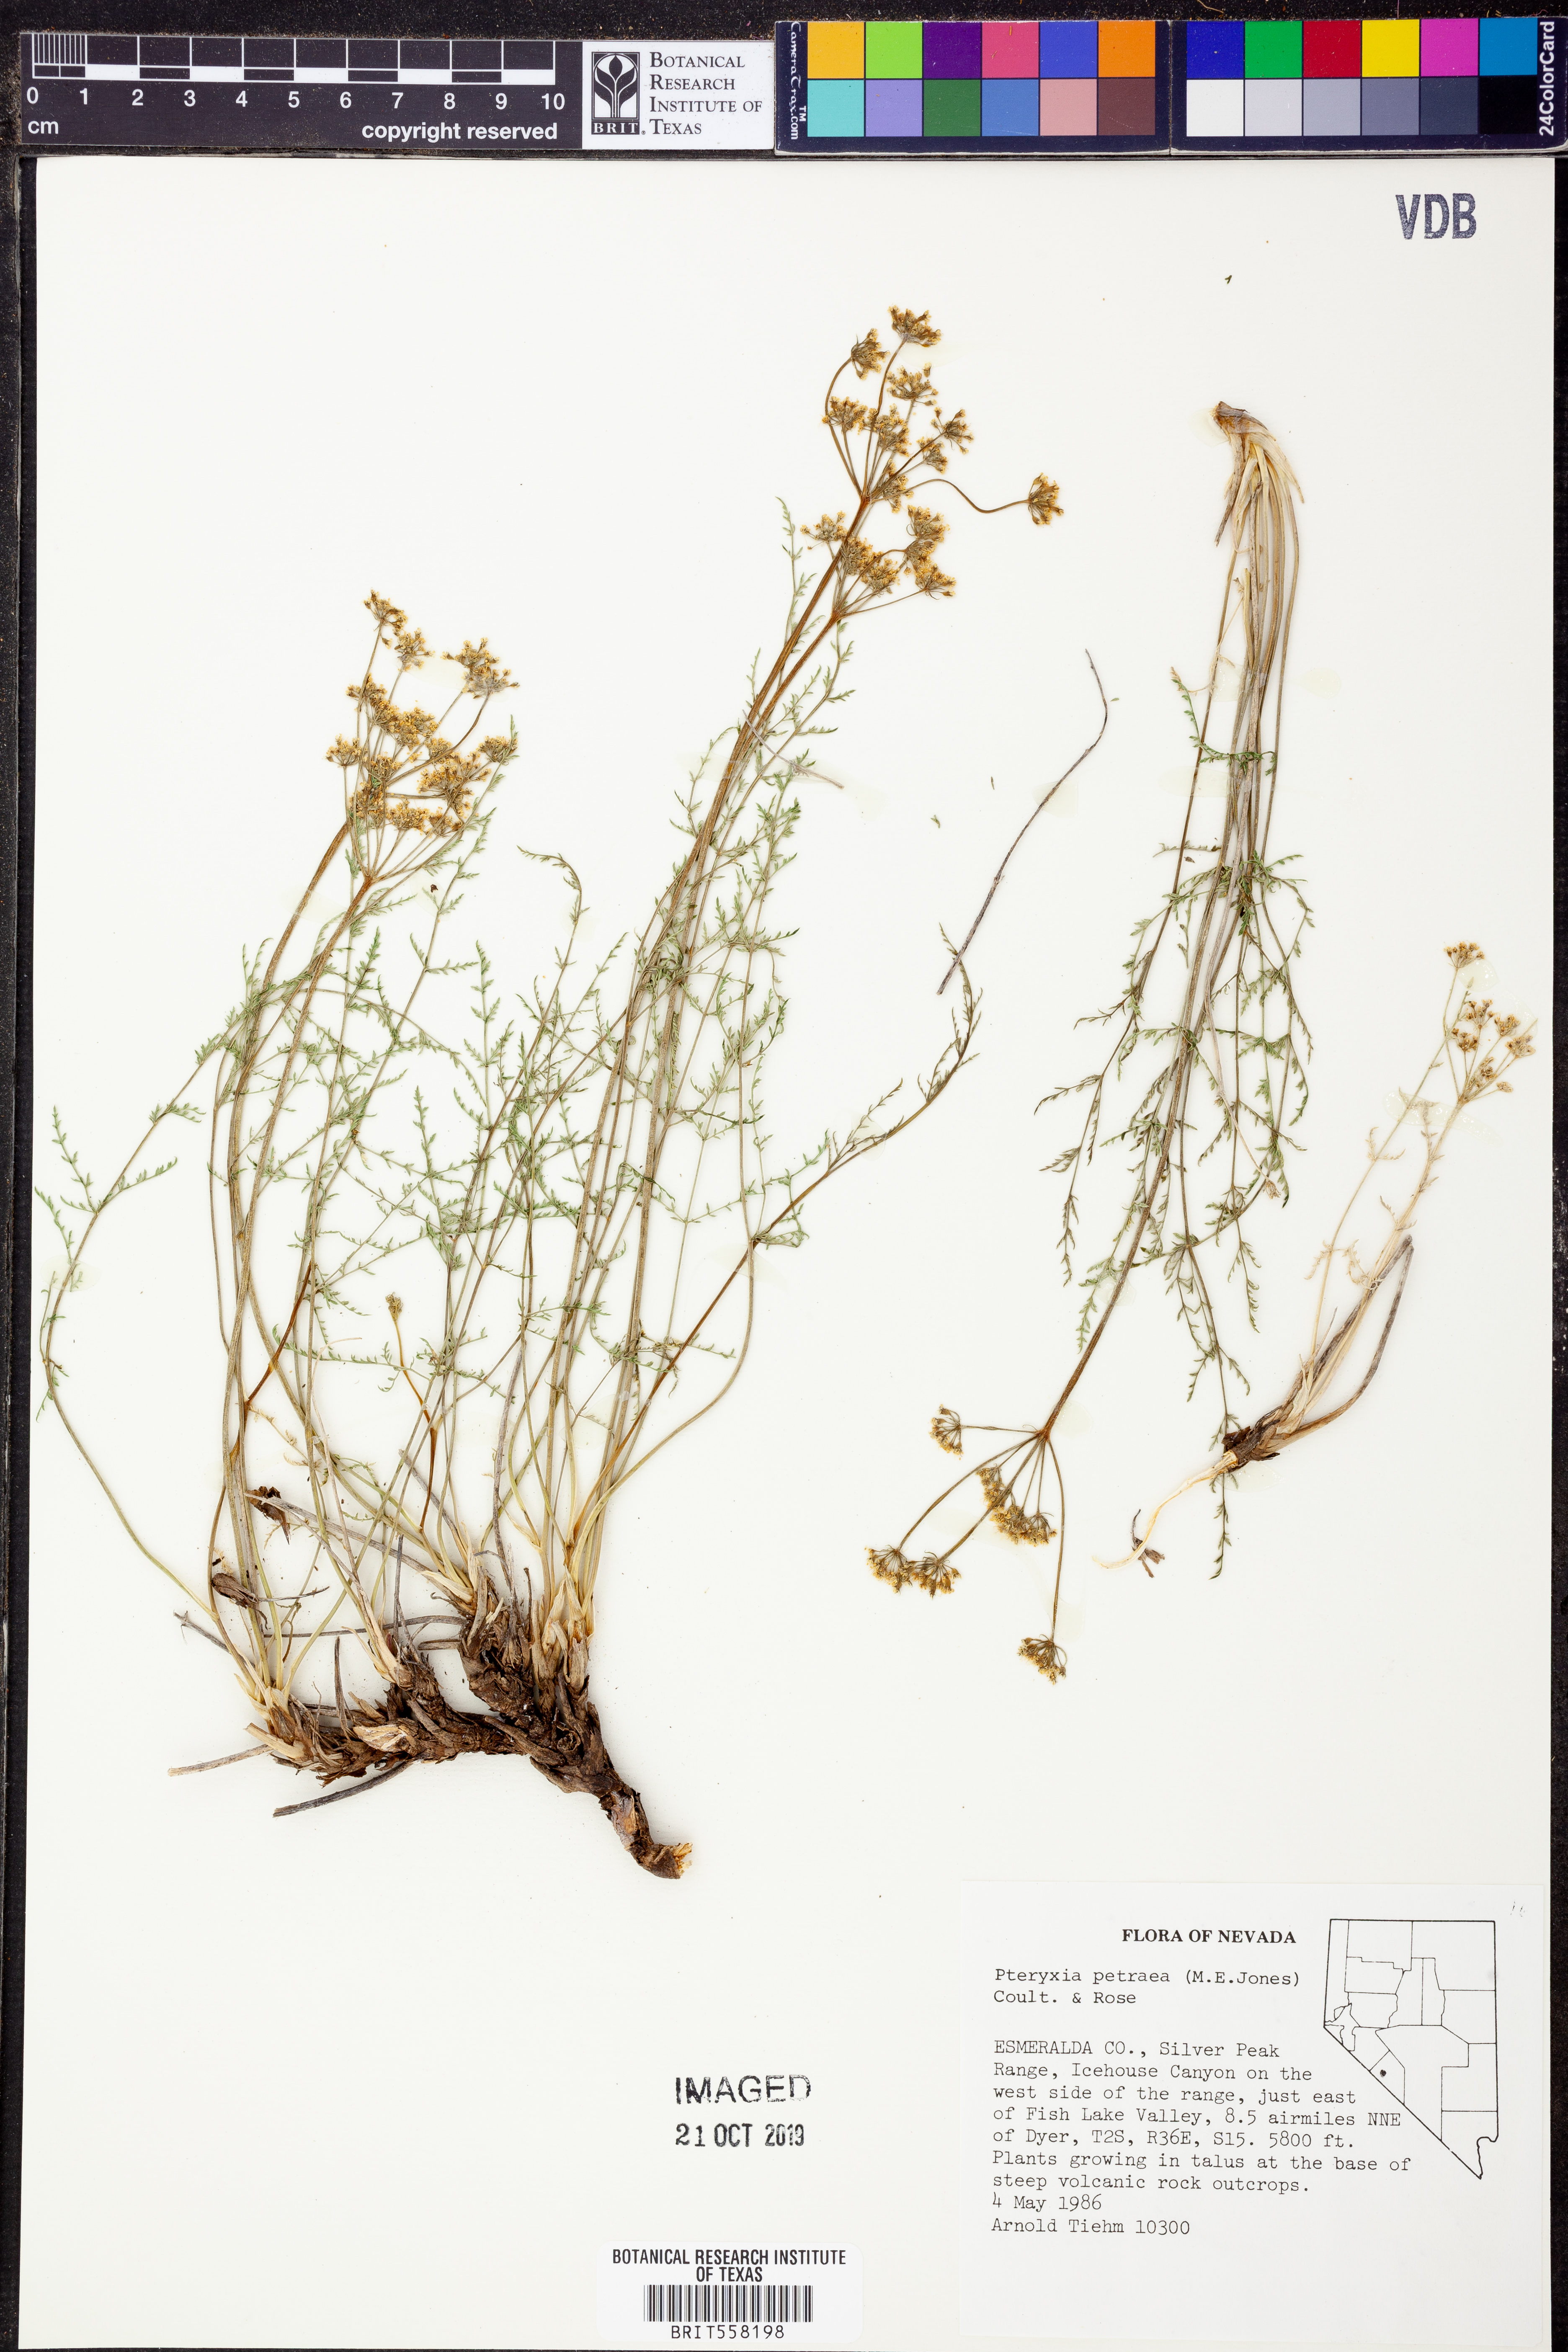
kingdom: Plantae
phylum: Tracheophyta
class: Magnoliopsida
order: Apiales
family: Apiaceae
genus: Pteryxia
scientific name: Pteryxia petraea
